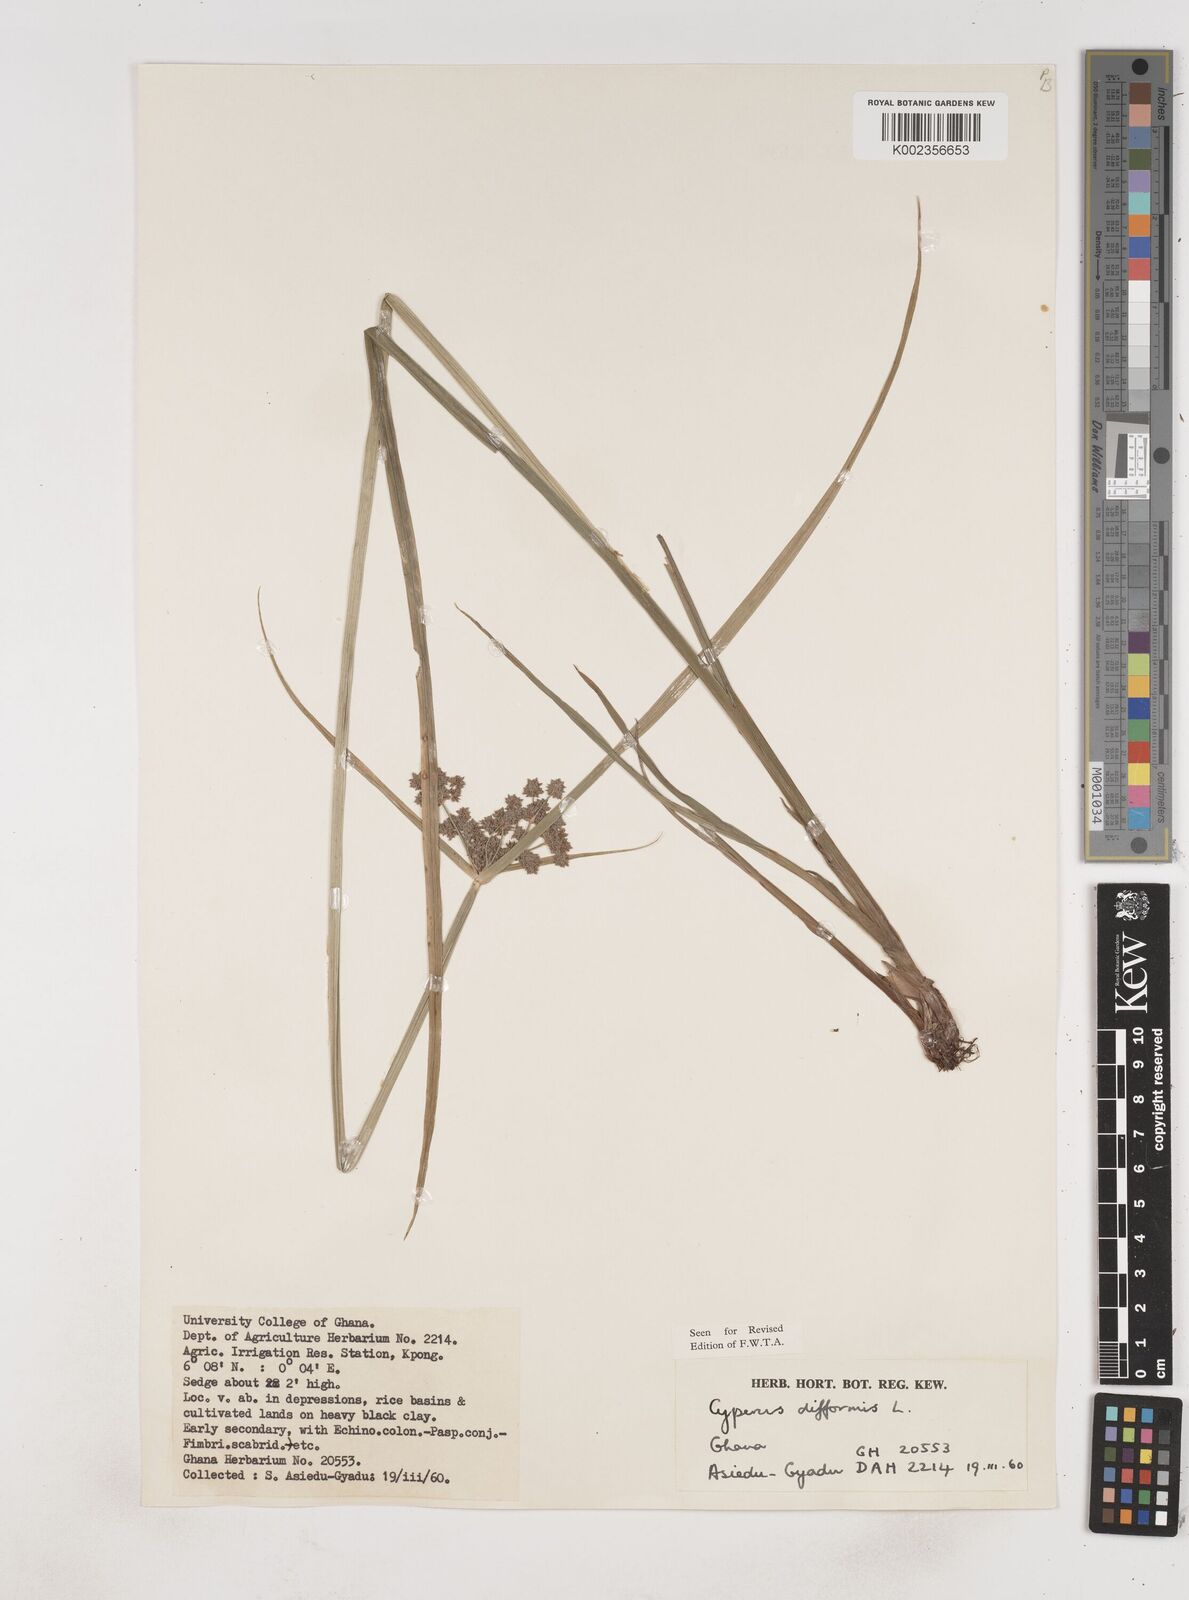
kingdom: Plantae
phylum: Tracheophyta
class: Liliopsida
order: Poales
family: Cyperaceae
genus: Cyperus
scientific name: Cyperus difformis
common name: Variable flatsedge
